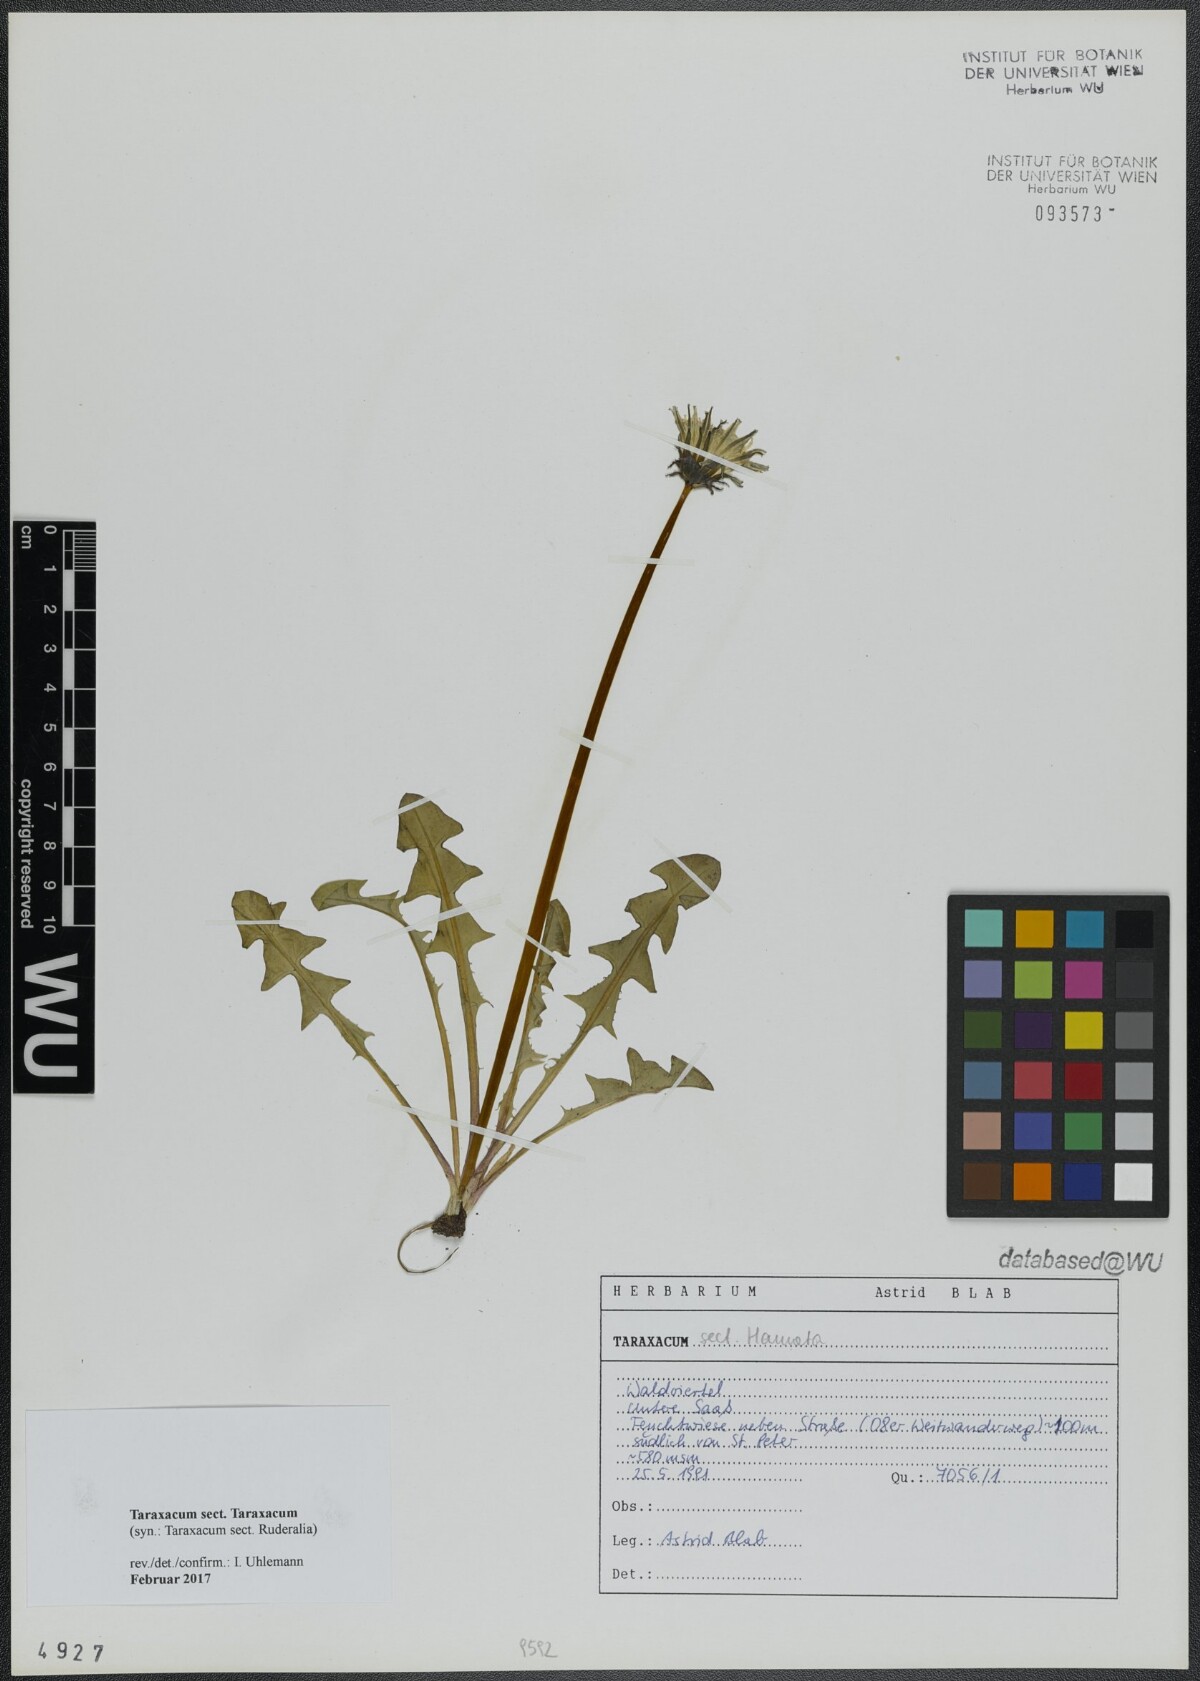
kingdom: Plantae
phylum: Tracheophyta
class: Magnoliopsida
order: Asterales
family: Asteraceae
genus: Taraxacum
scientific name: Taraxacum
